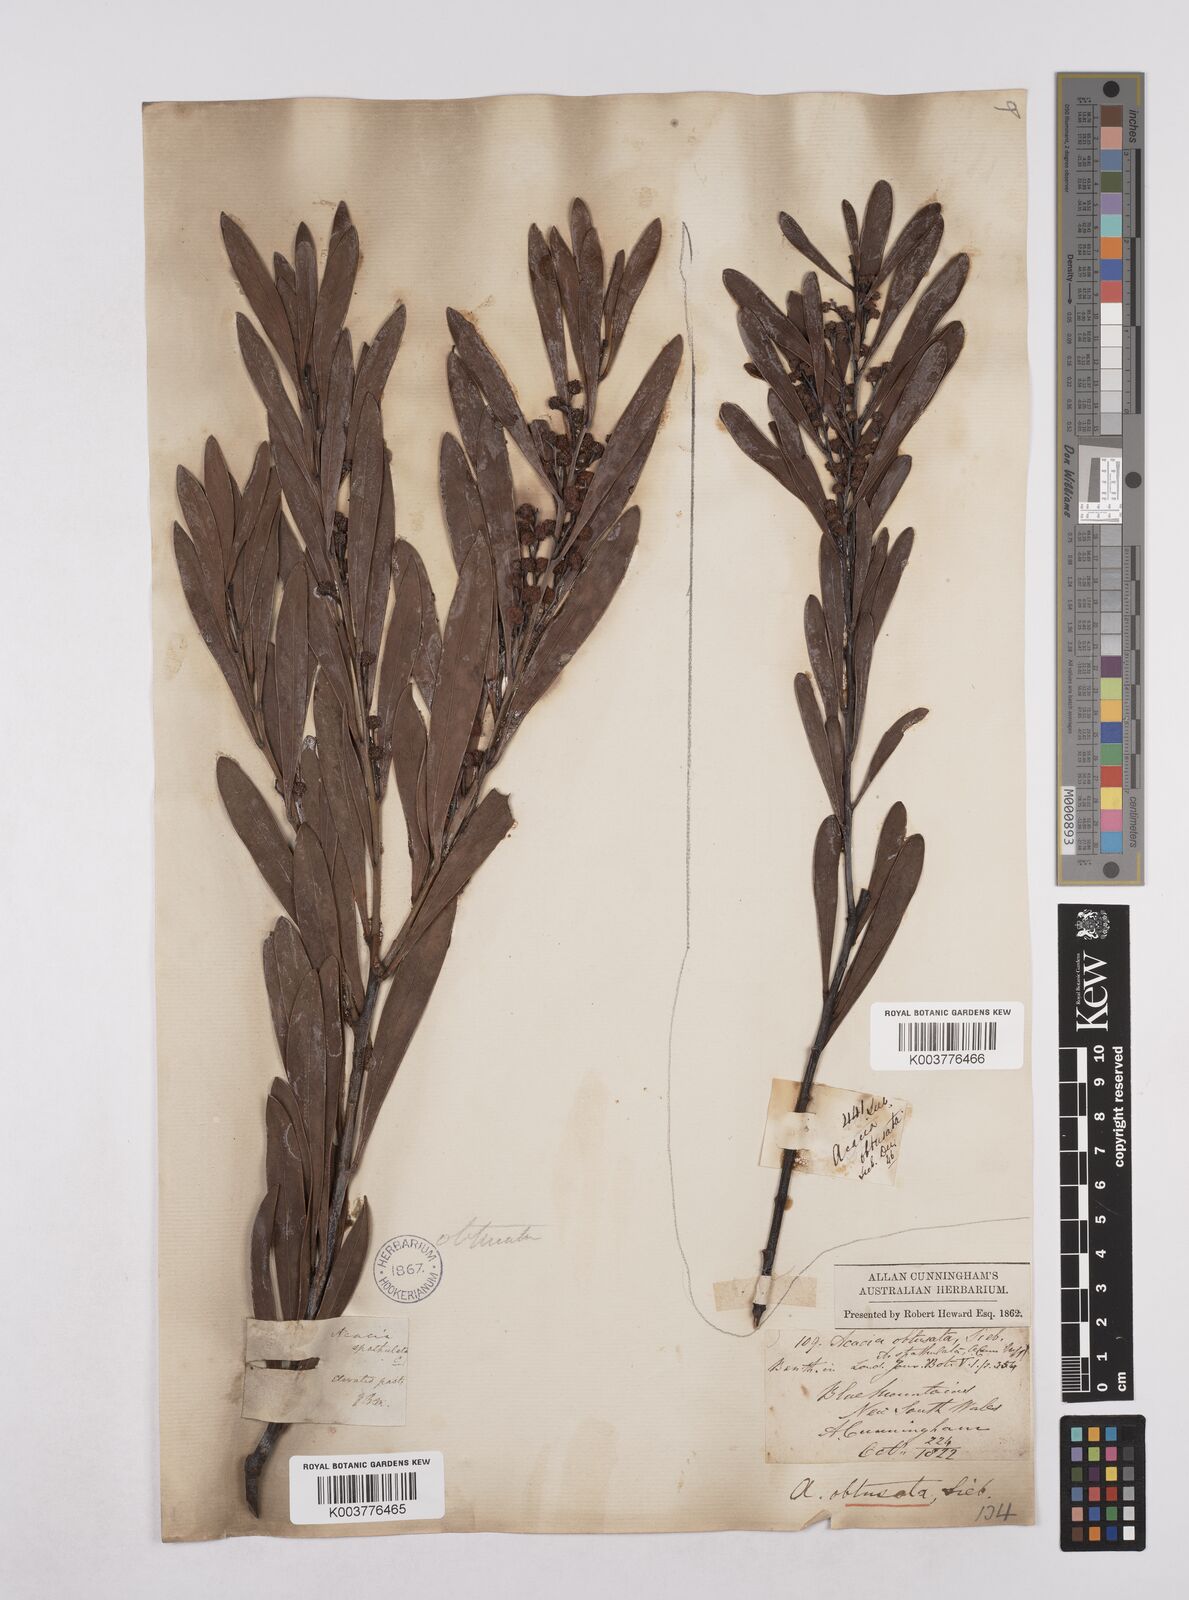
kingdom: Plantae
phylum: Tracheophyta
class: Magnoliopsida
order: Fabales
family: Fabaceae
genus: Acacia
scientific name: Acacia obtusata
